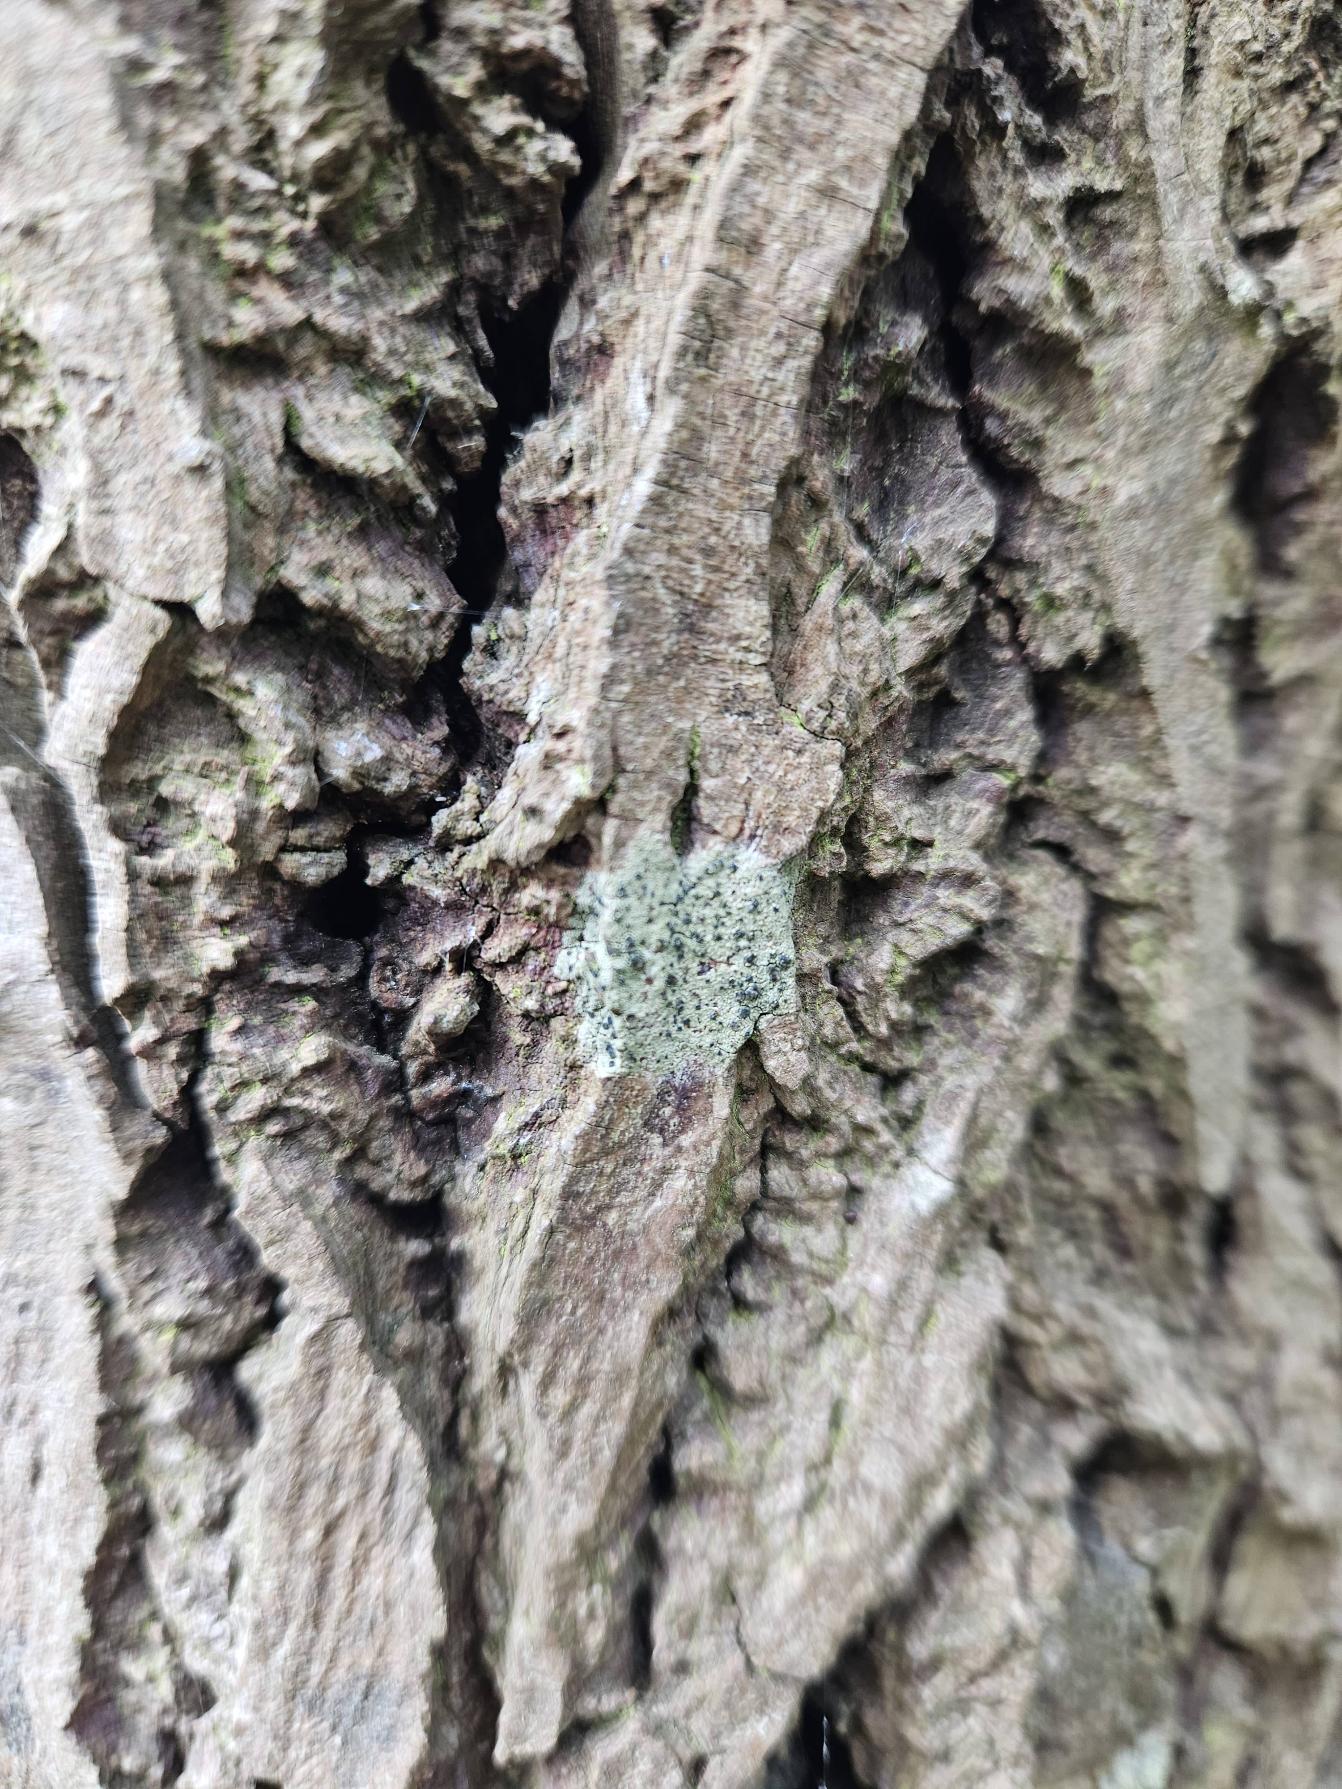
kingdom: Fungi
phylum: Ascomycota
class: Lecanoromycetes
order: Lecanorales
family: Lecanoraceae
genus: Lecidella
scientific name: Lecidella elaeochroma
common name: Grågrøn skivelav
